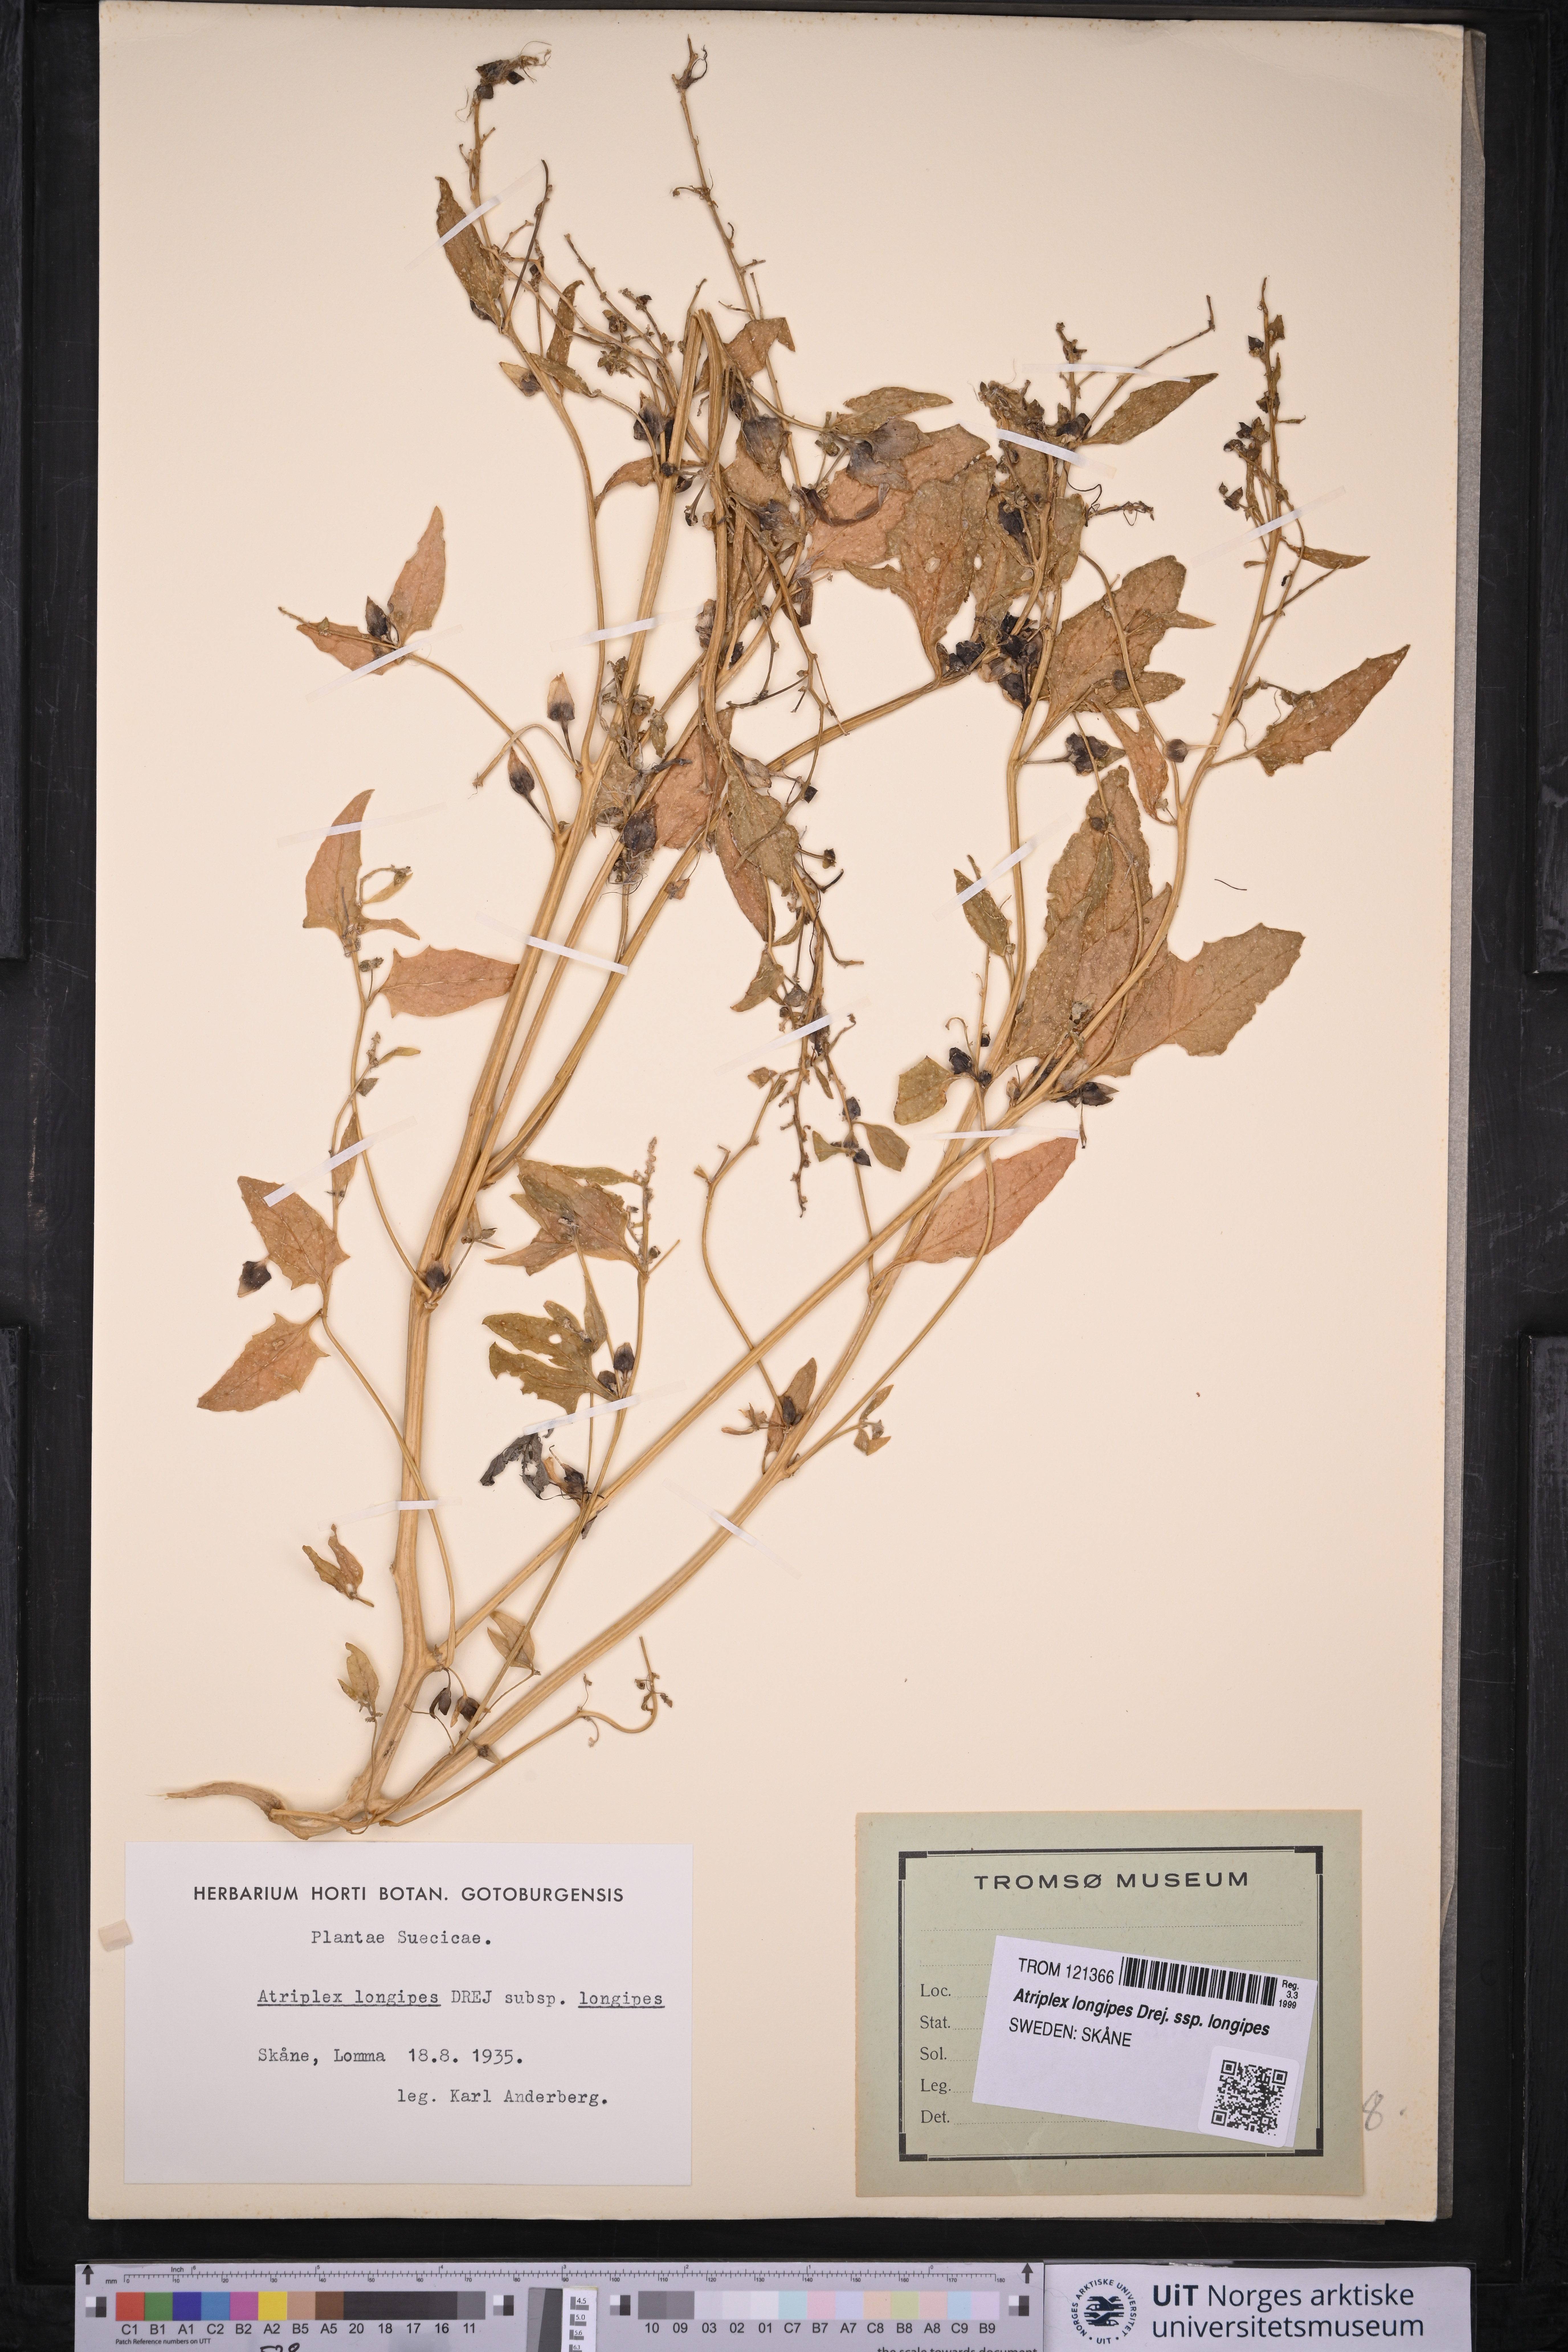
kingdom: Plantae
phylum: Tracheophyta
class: Magnoliopsida
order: Caryophyllales
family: Amaranthaceae
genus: Atriplex
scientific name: Atriplex longipes
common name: Long-stalked orache
